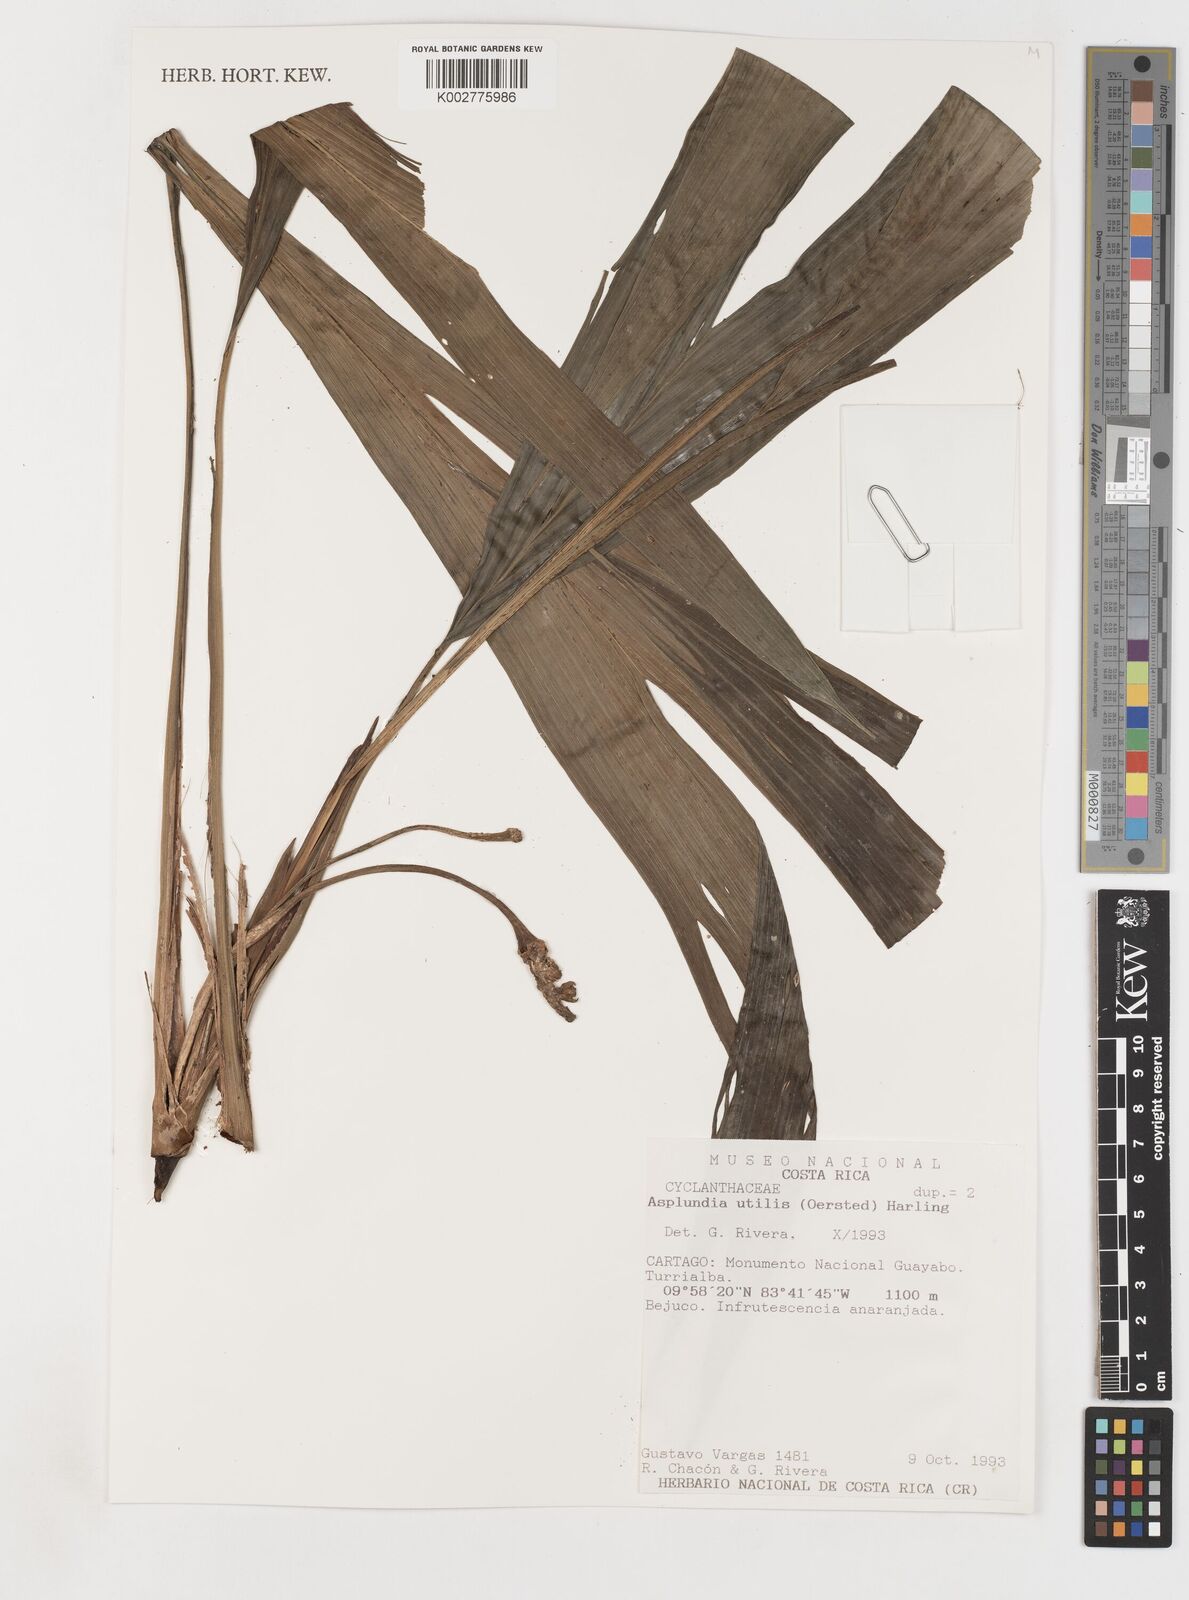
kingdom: Plantae
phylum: Tracheophyta
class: Liliopsida
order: Pandanales
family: Cyclanthaceae
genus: Asplundia
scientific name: Asplundia utilis
